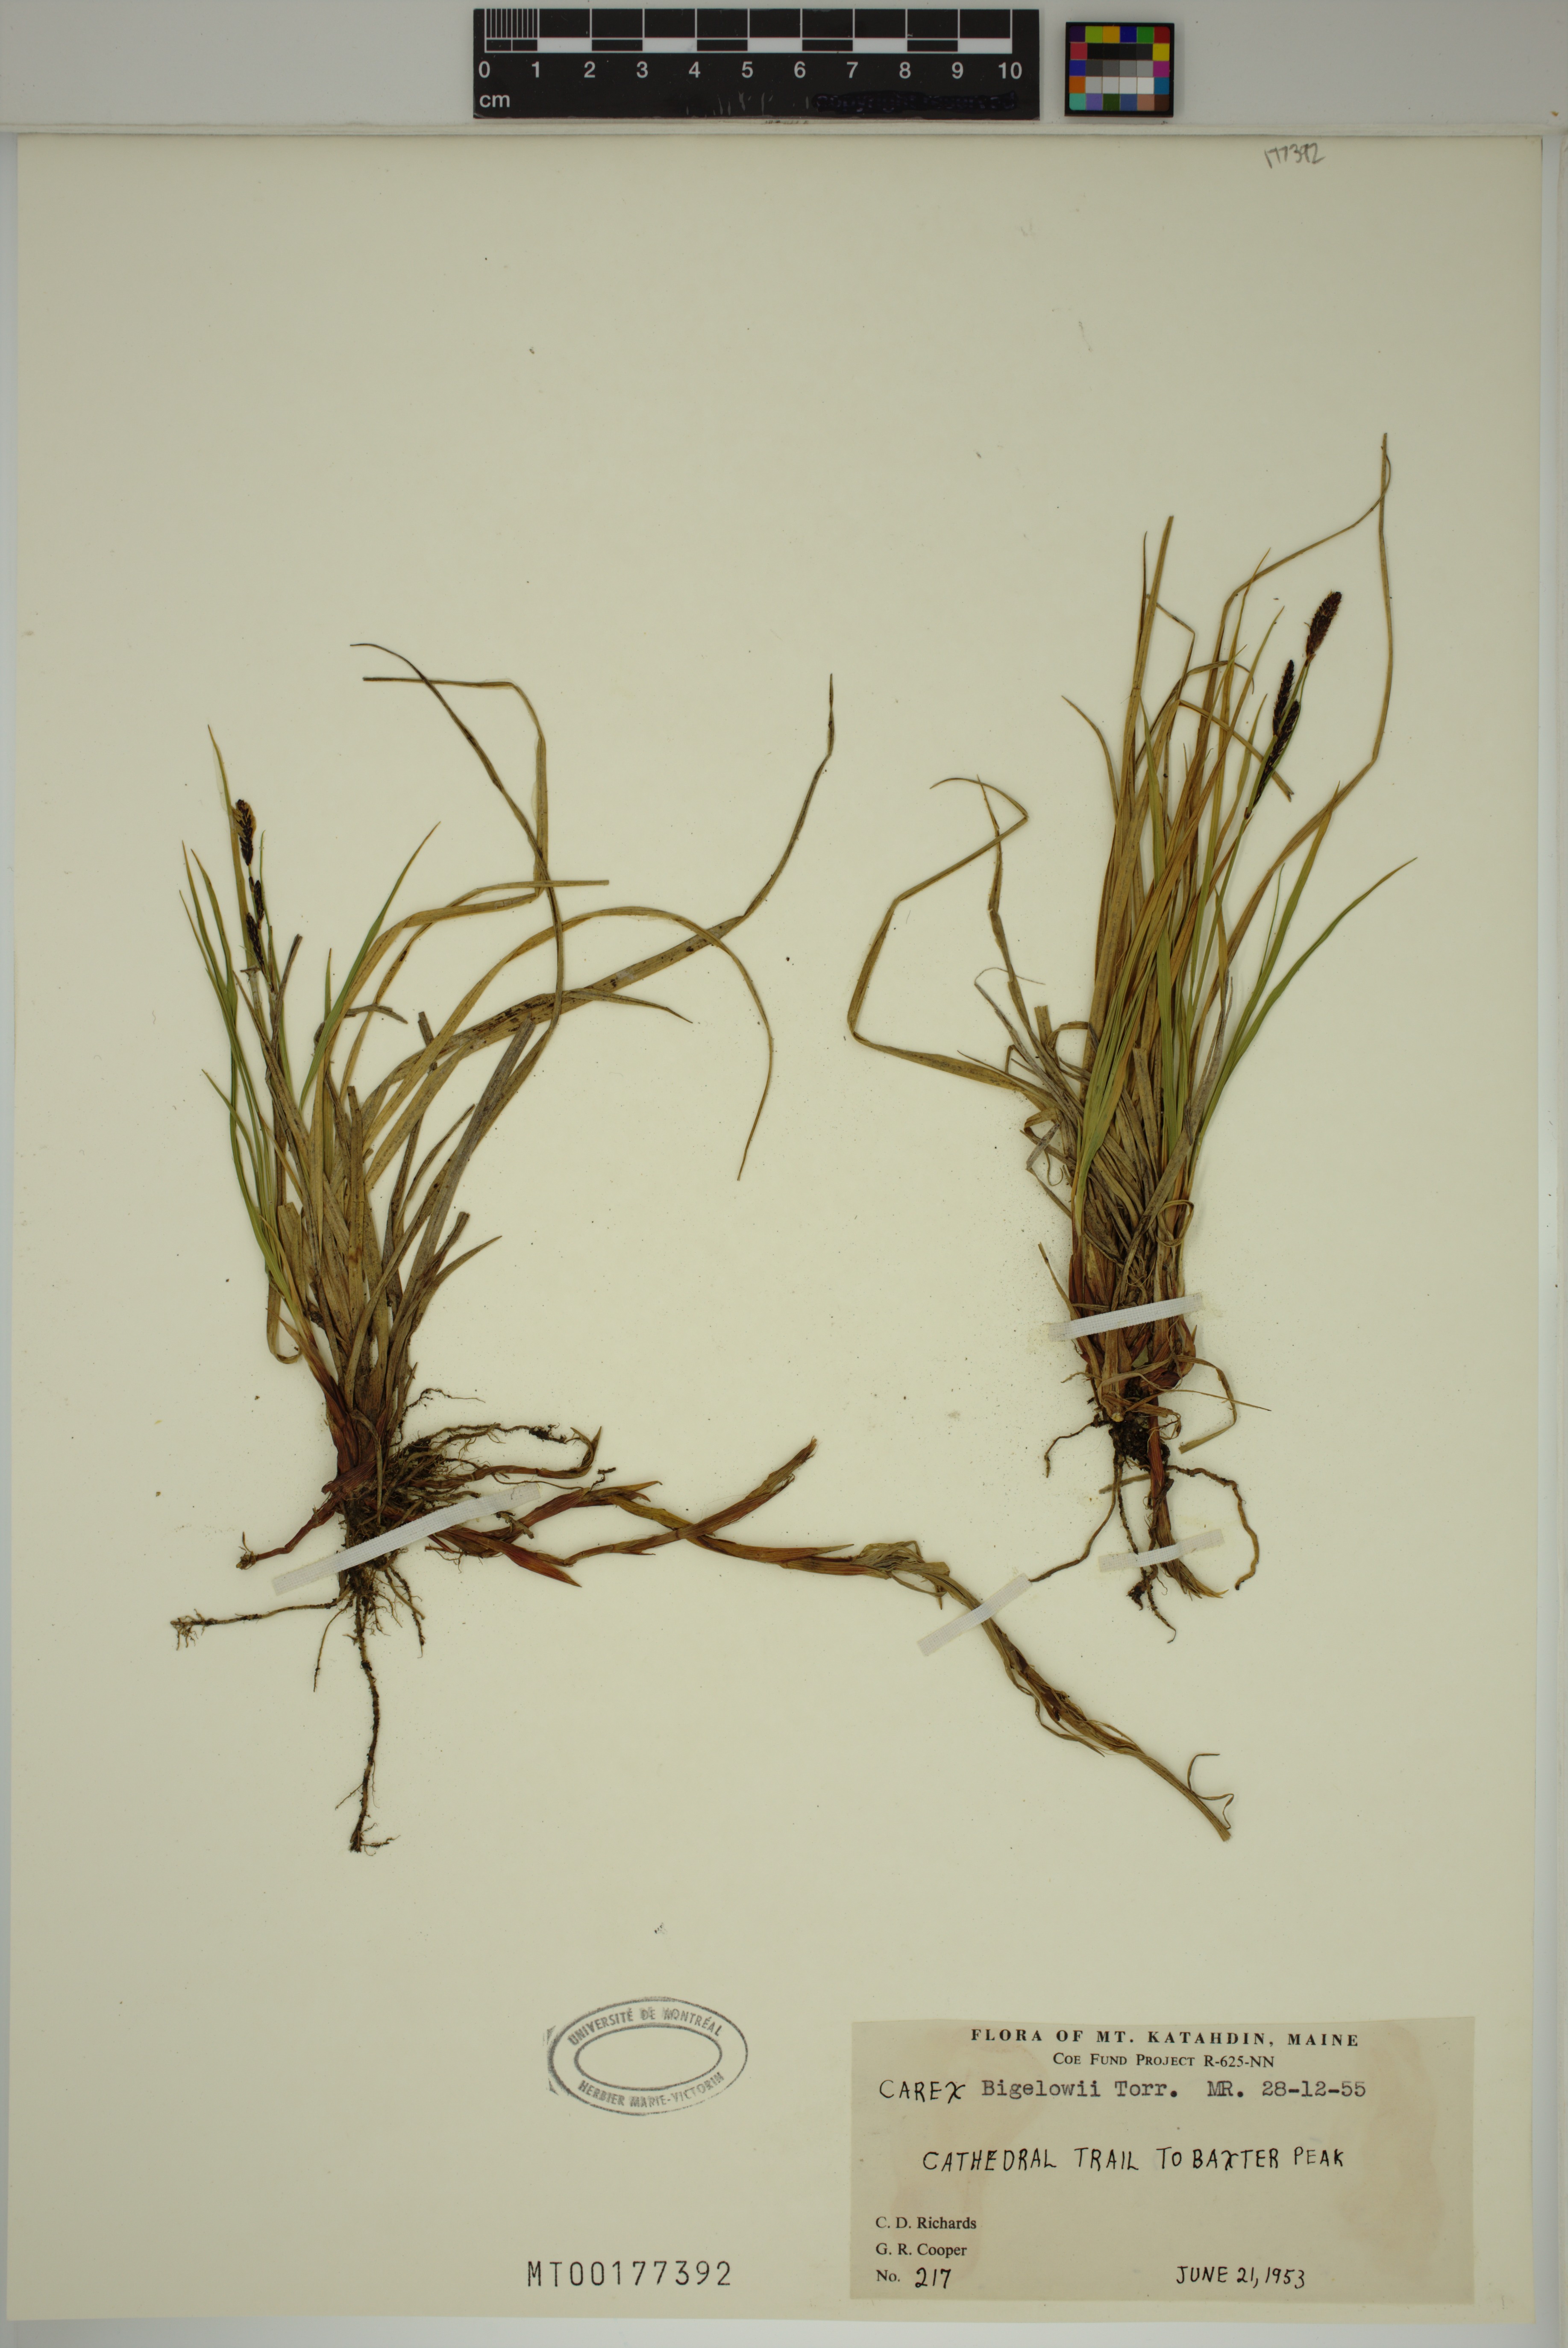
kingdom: Plantae
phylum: Tracheophyta
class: Liliopsida
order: Poales
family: Cyperaceae
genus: Carex
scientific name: Carex bigelowii
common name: Stiff sedge
